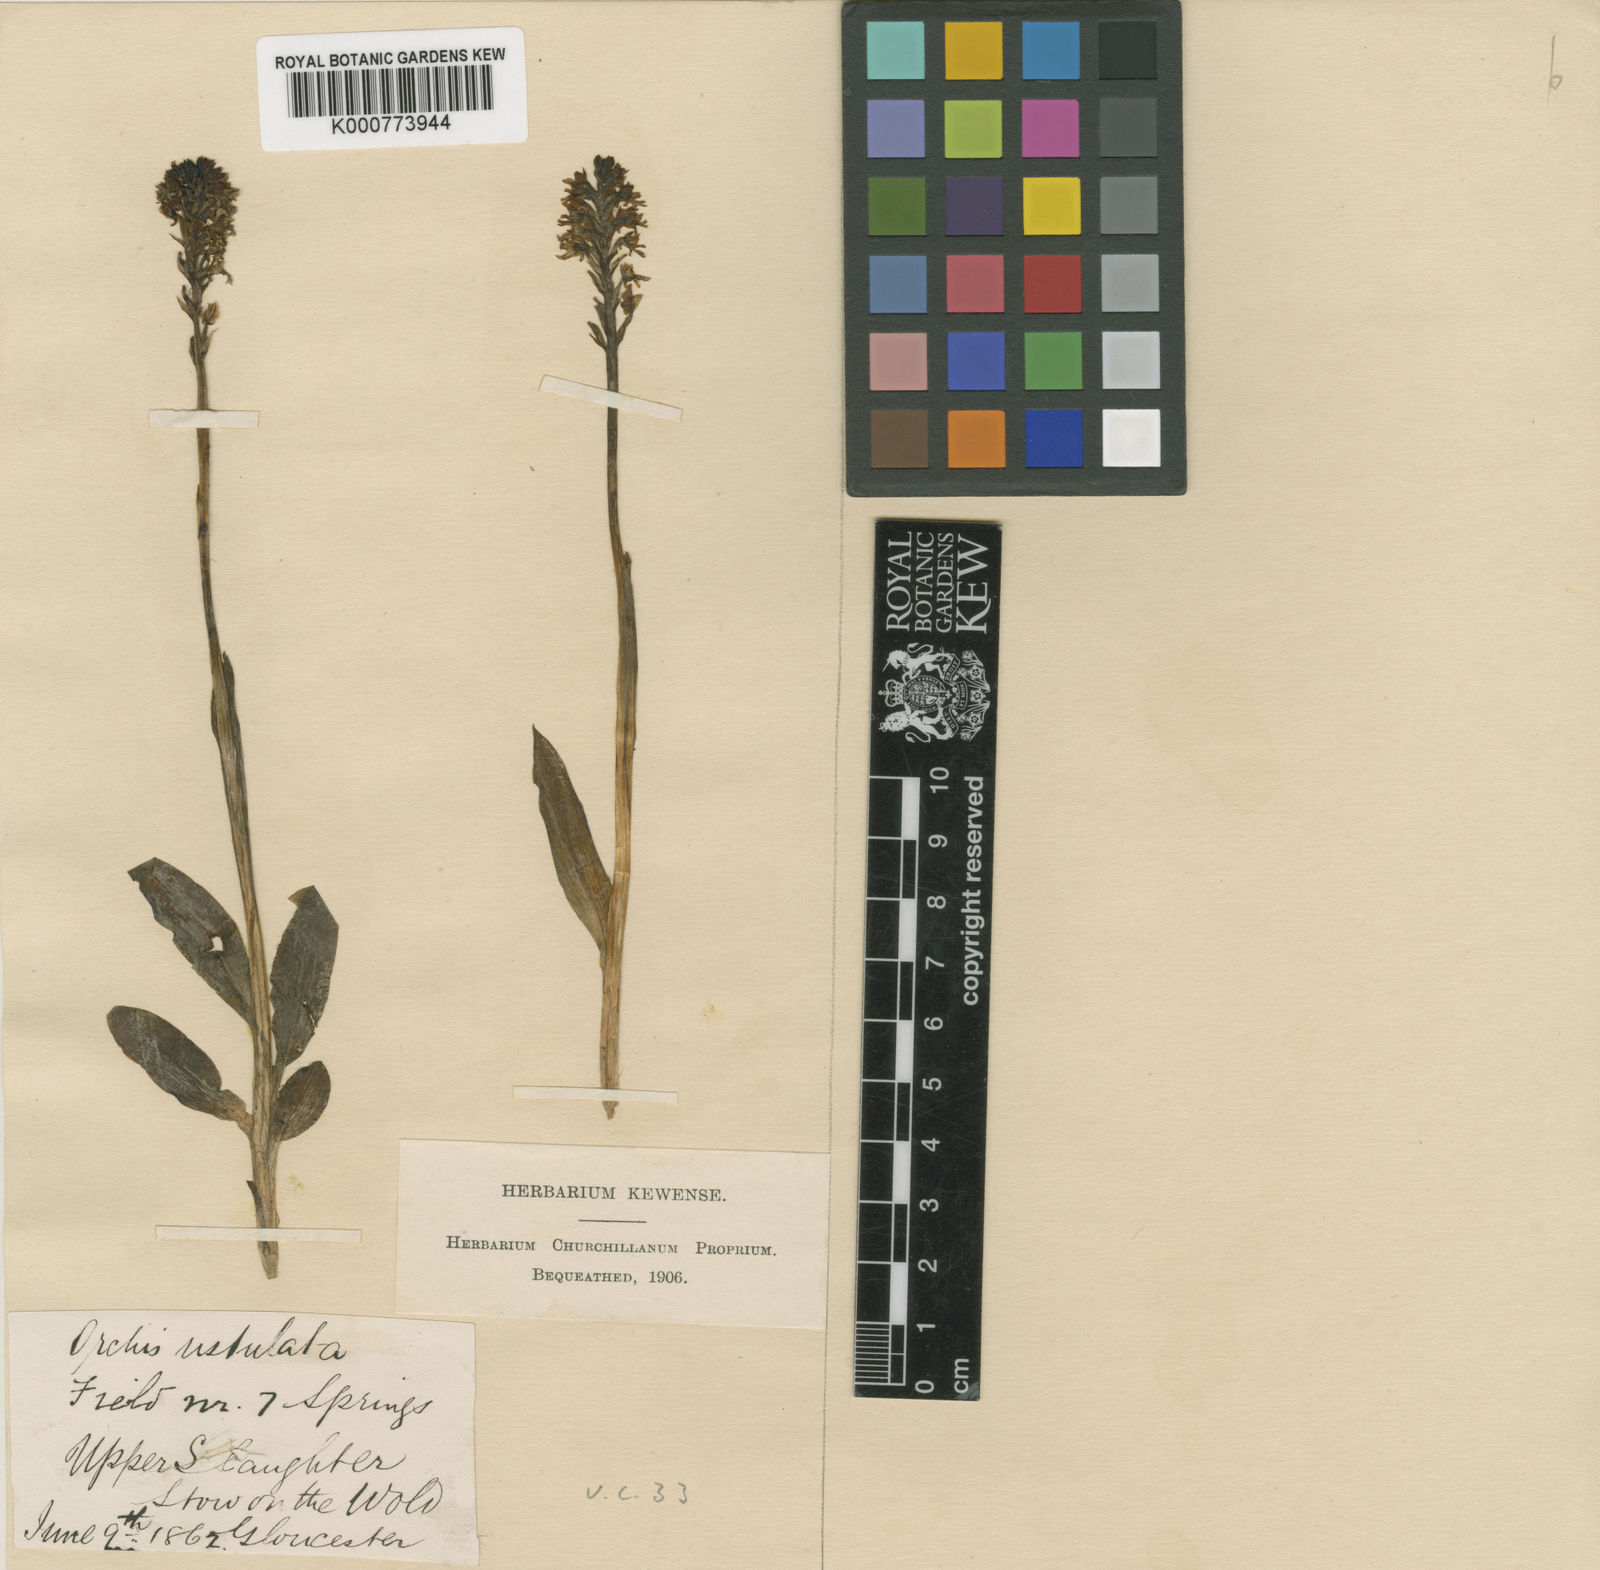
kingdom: Plantae
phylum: Tracheophyta
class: Liliopsida
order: Asparagales
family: Orchidaceae
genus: Neotinea
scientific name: Neotinea ustulata
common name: Burnt orchid
